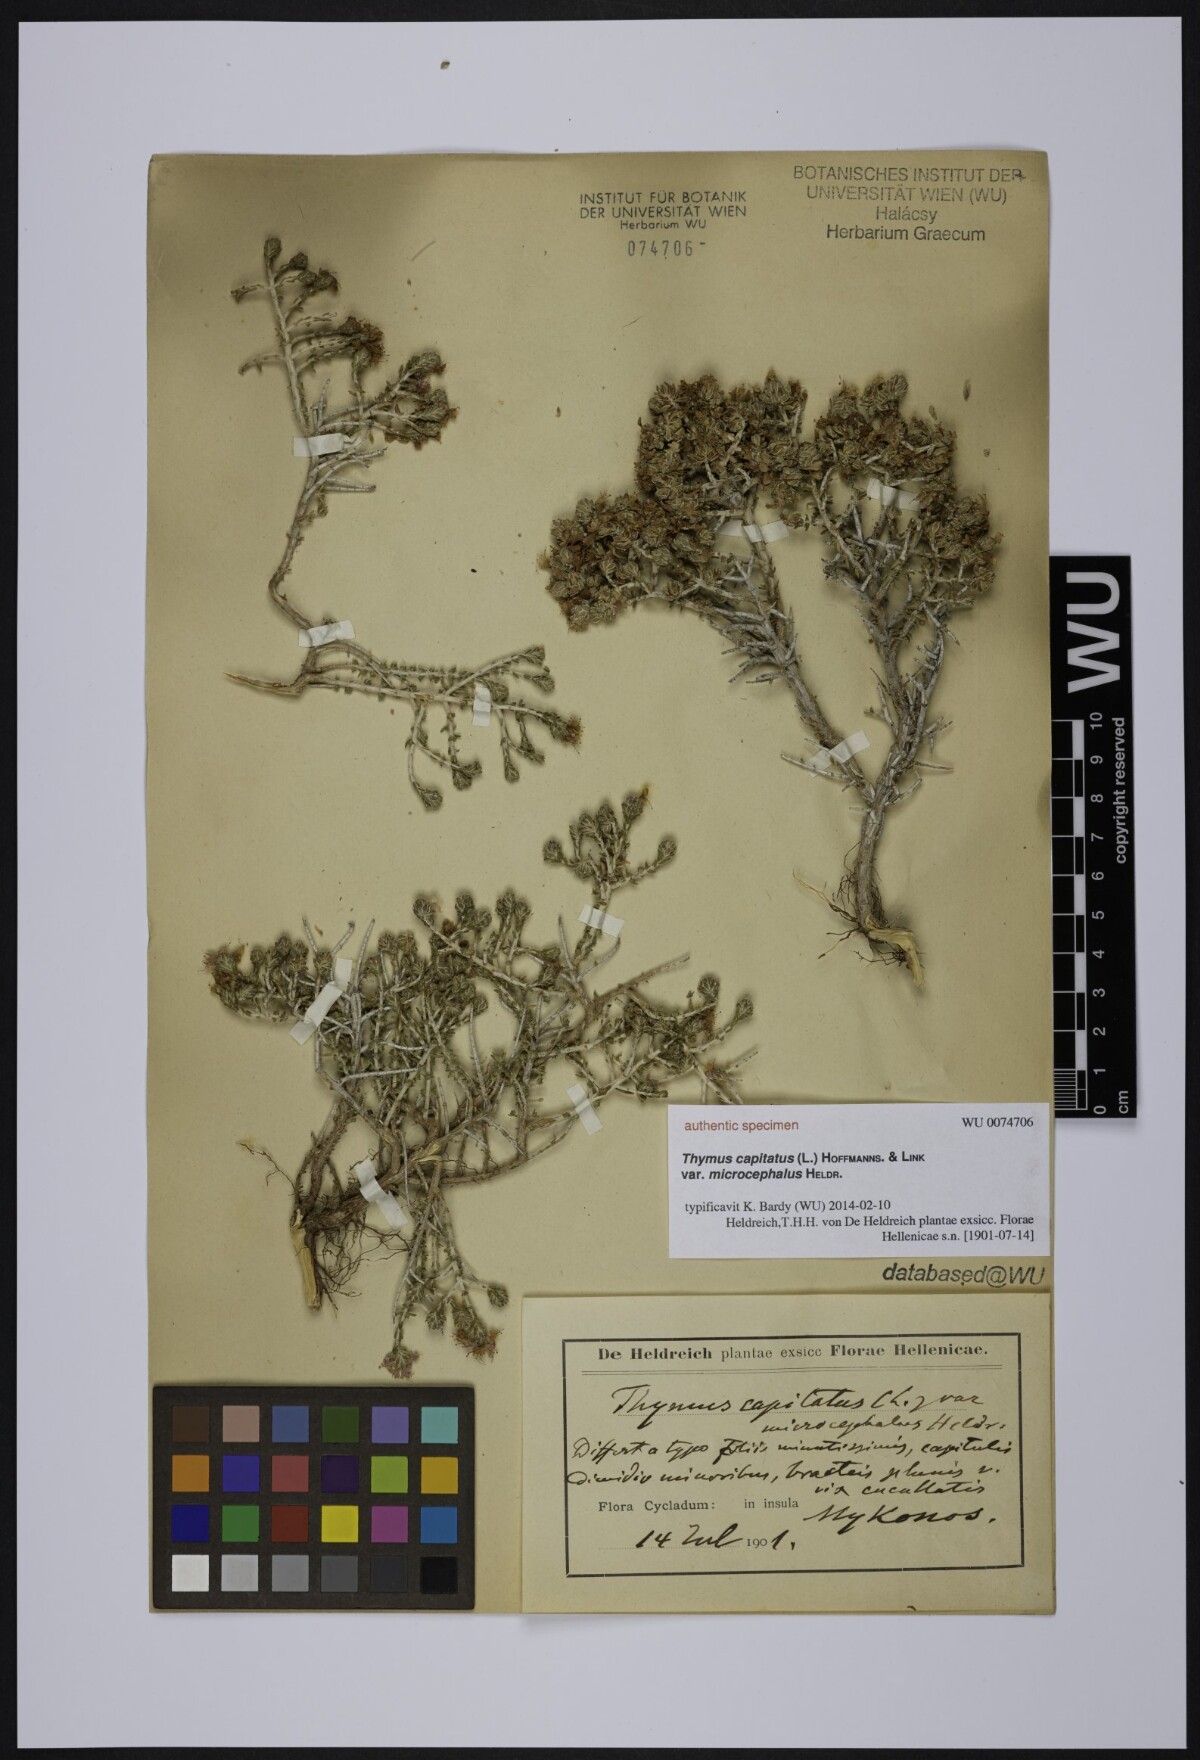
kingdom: Plantae
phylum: Tracheophyta
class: Magnoliopsida
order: Lamiales
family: Lamiaceae
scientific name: Lamiaceae
